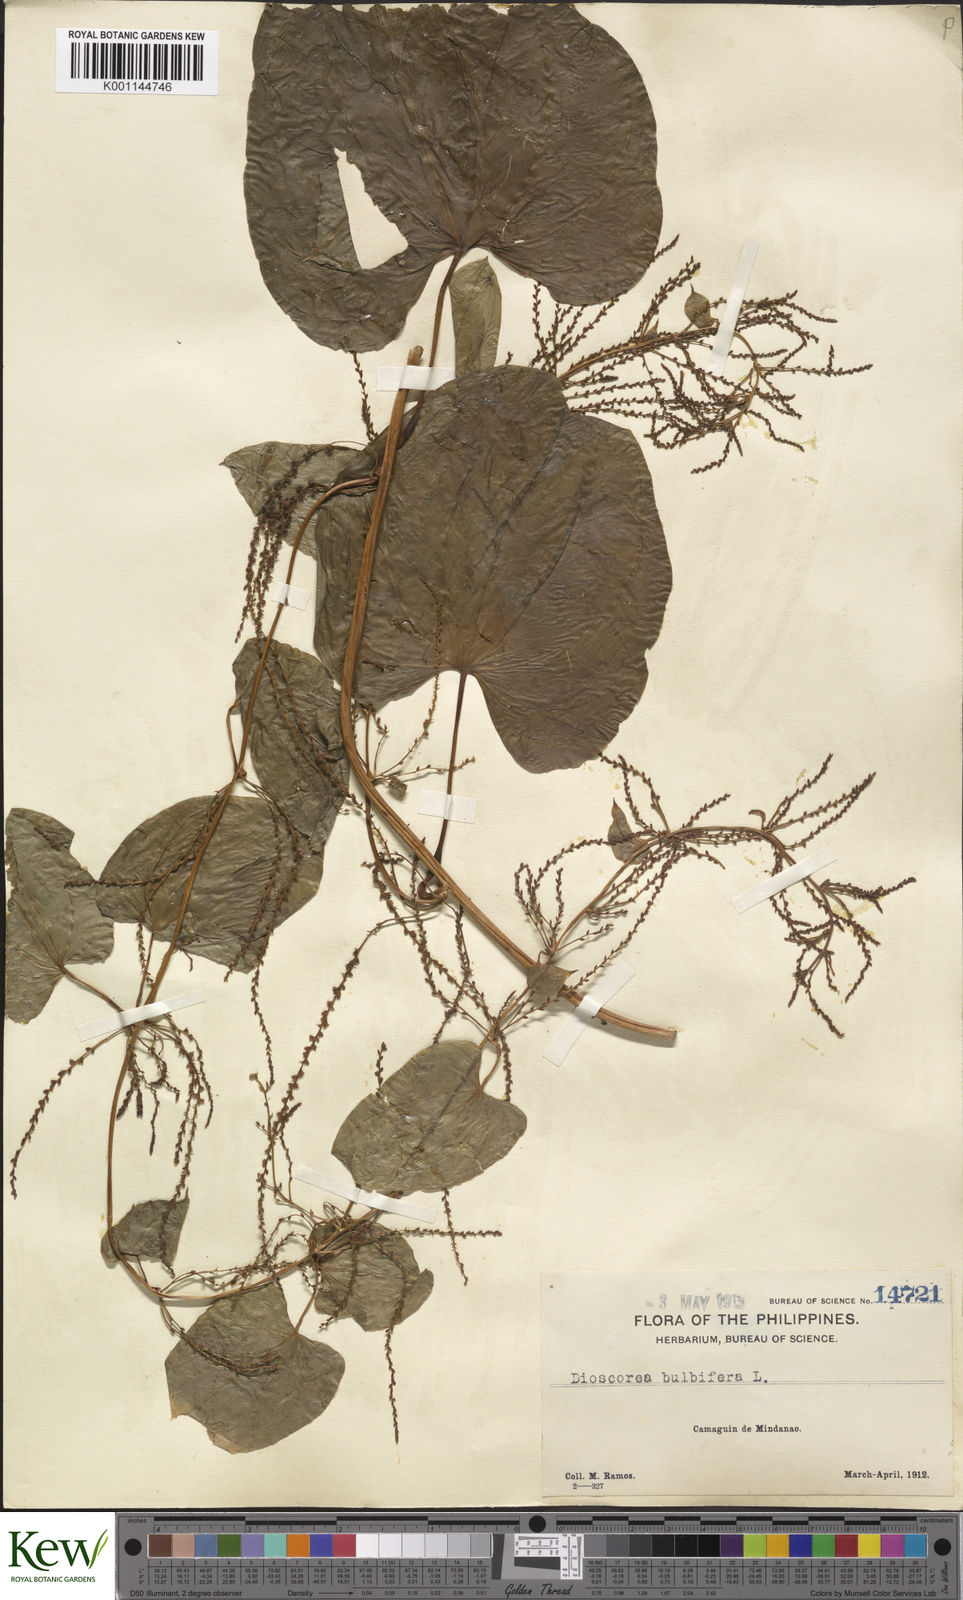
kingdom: Plantae
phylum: Tracheophyta
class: Liliopsida
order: Dioscoreales
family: Dioscoreaceae
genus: Dioscorea
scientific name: Dioscorea bulbifera
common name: Air yam
